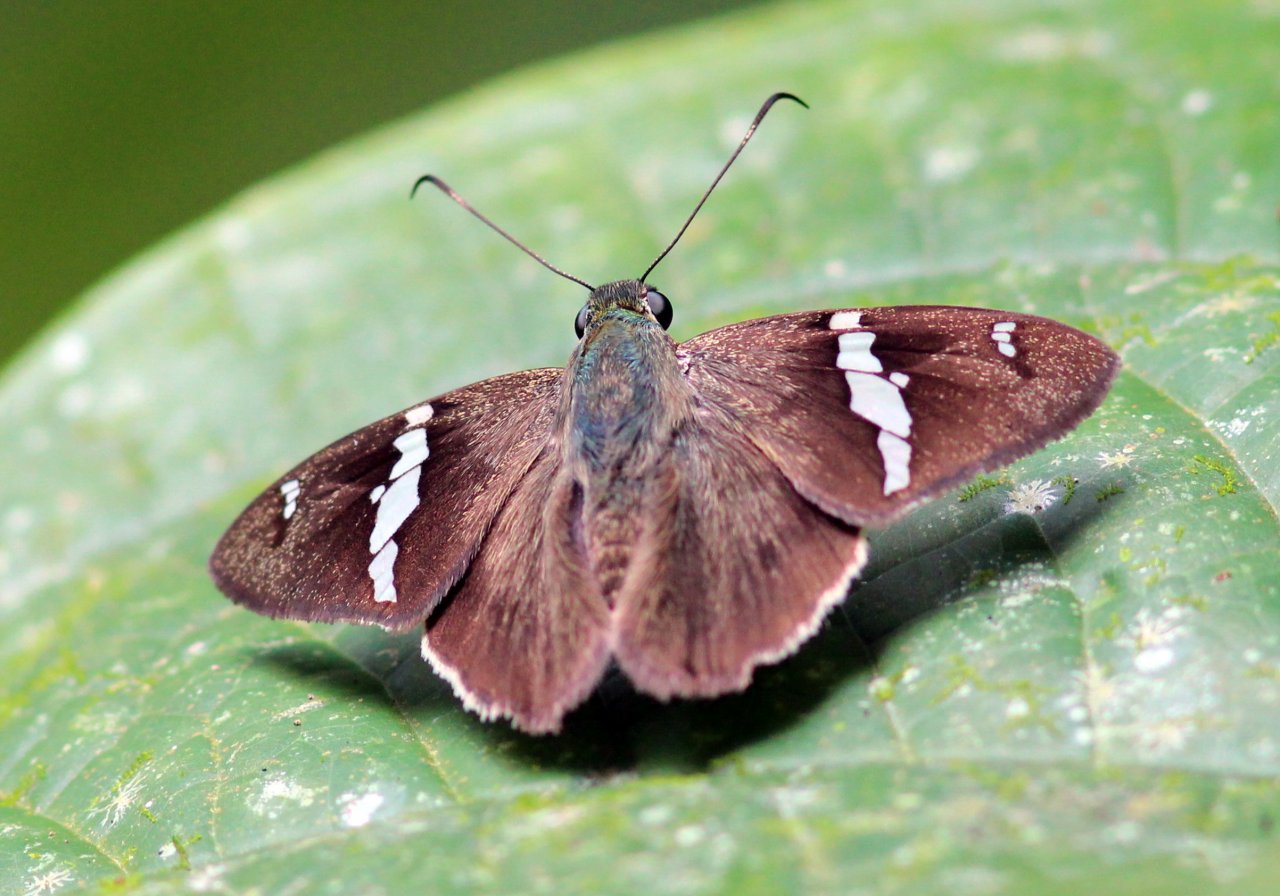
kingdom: Animalia
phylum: Arthropoda
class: Insecta
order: Lepidoptera
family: Hesperiidae
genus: Autochton
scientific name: Autochton neis
